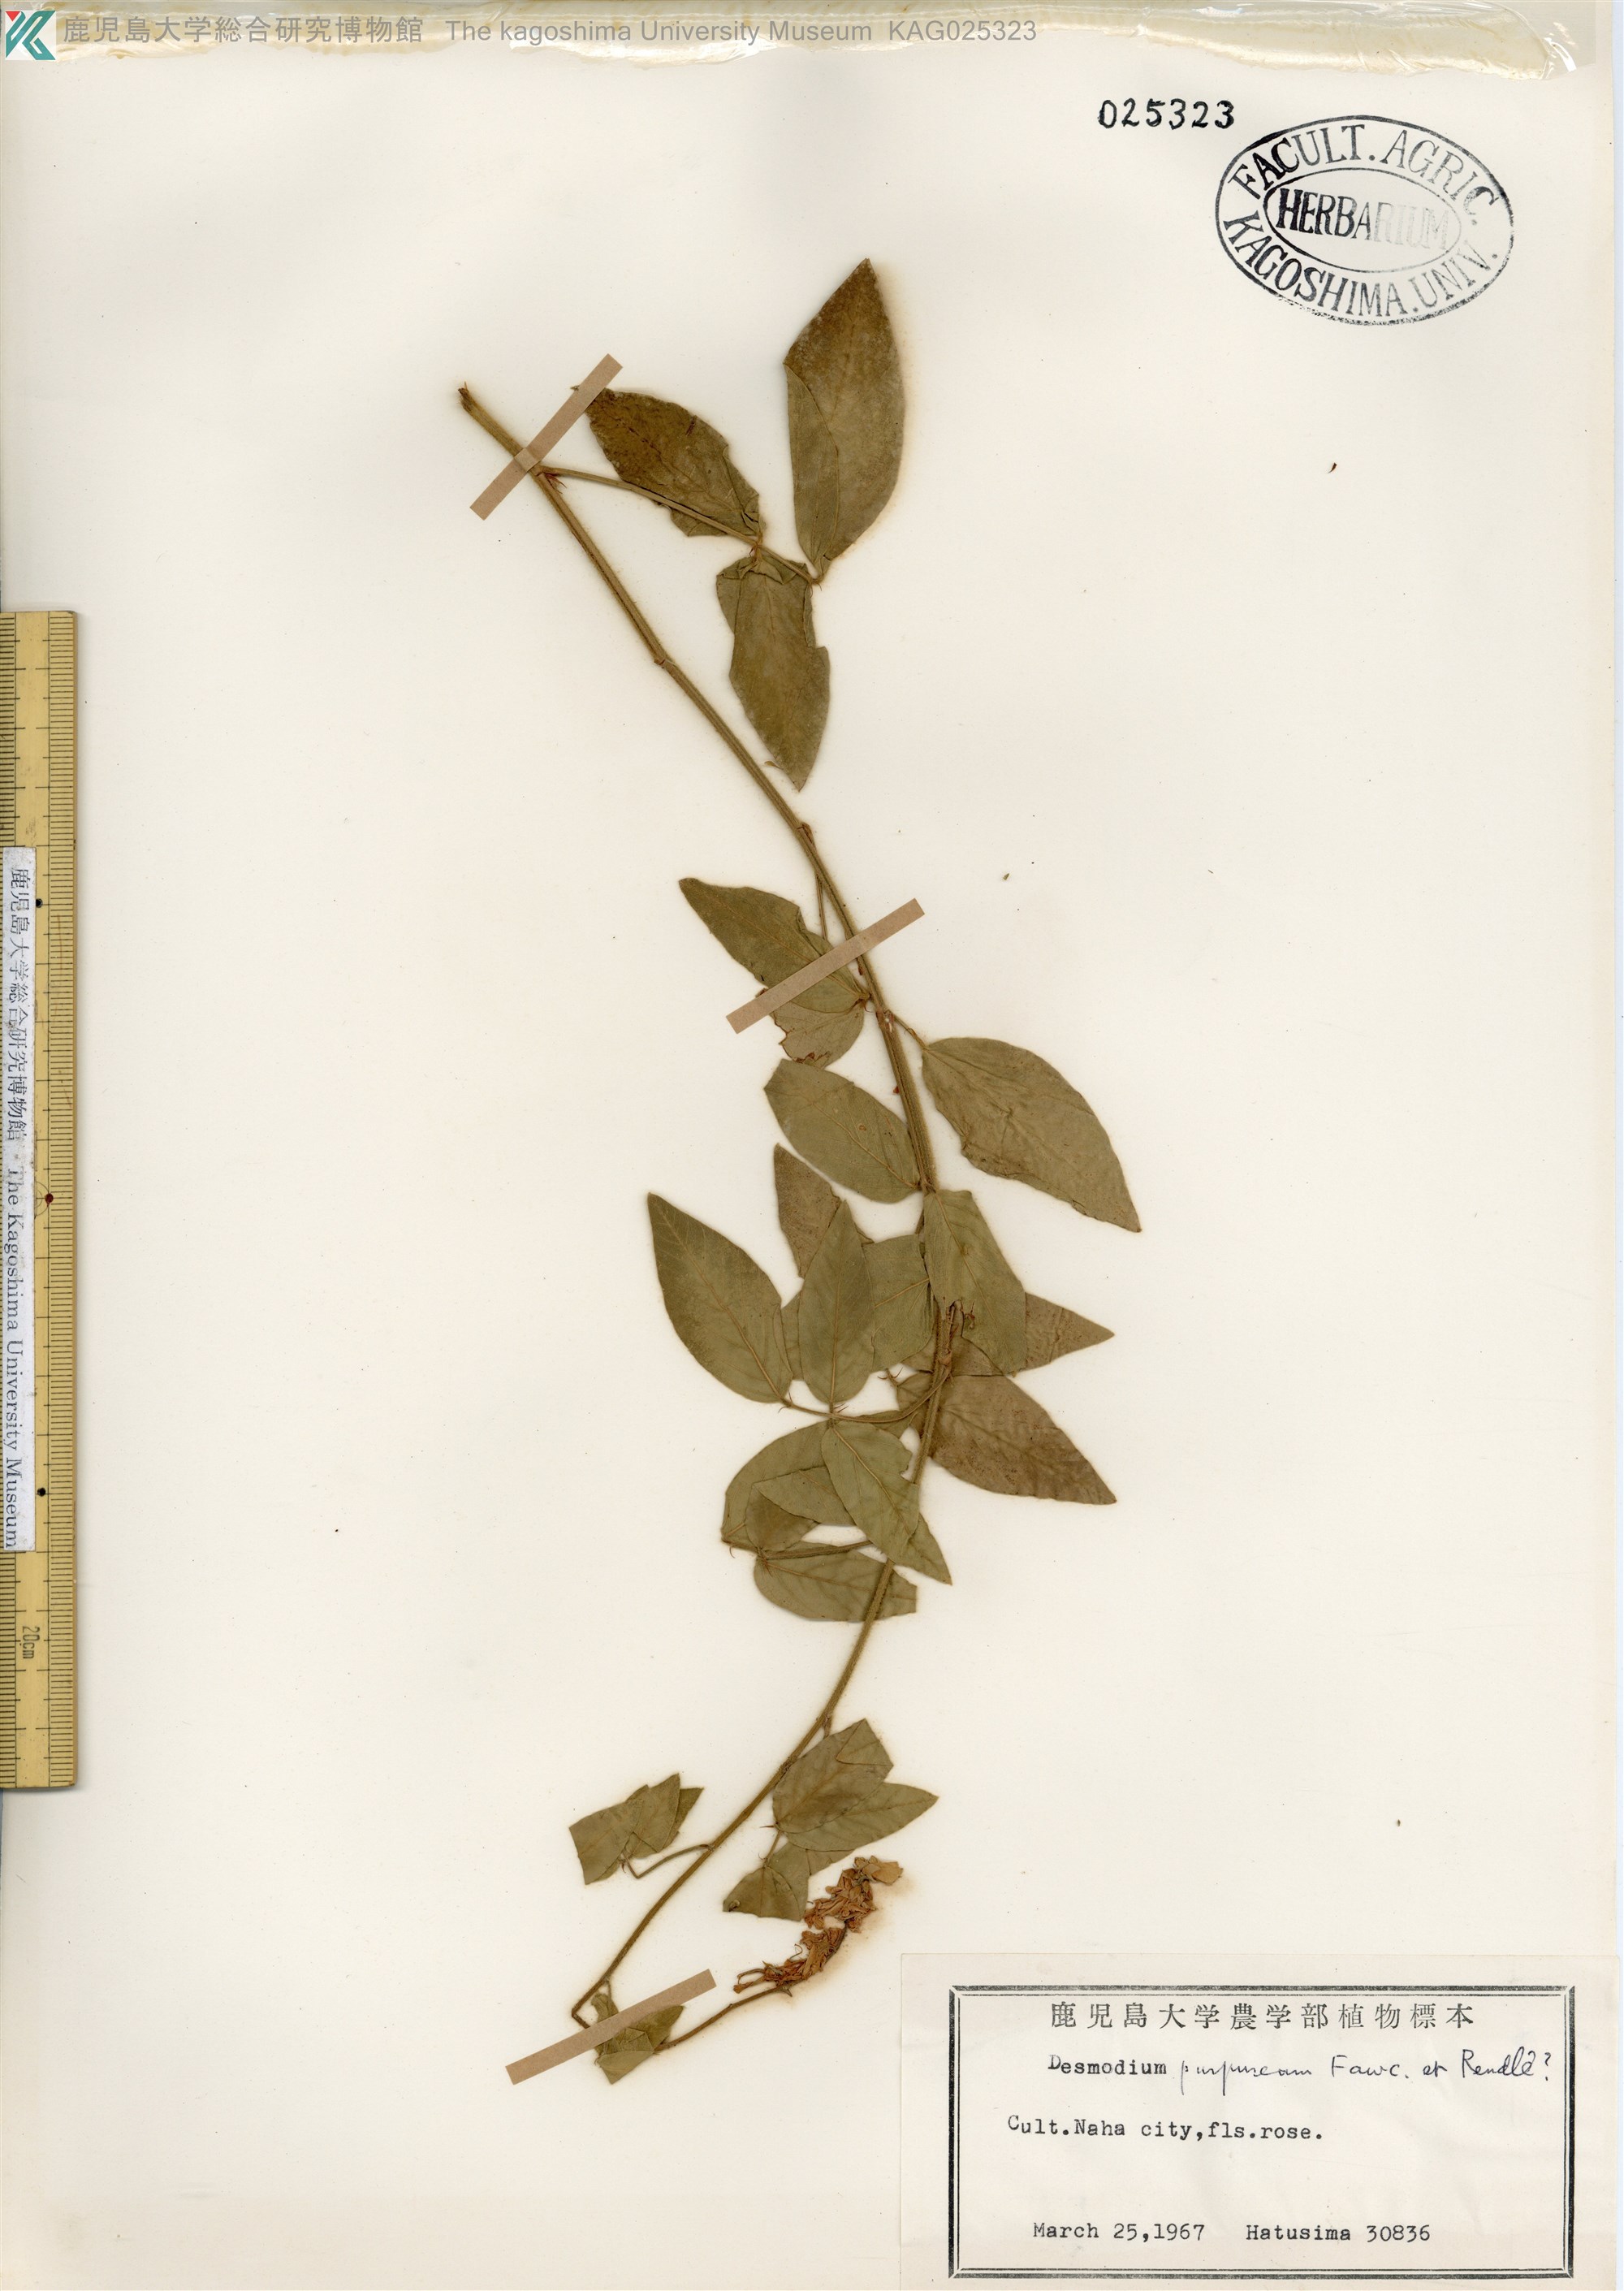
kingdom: Plantae
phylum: Tracheophyta
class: Magnoliopsida
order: Fabales
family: Fabaceae
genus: Desmodium
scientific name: Desmodium tortuosum
